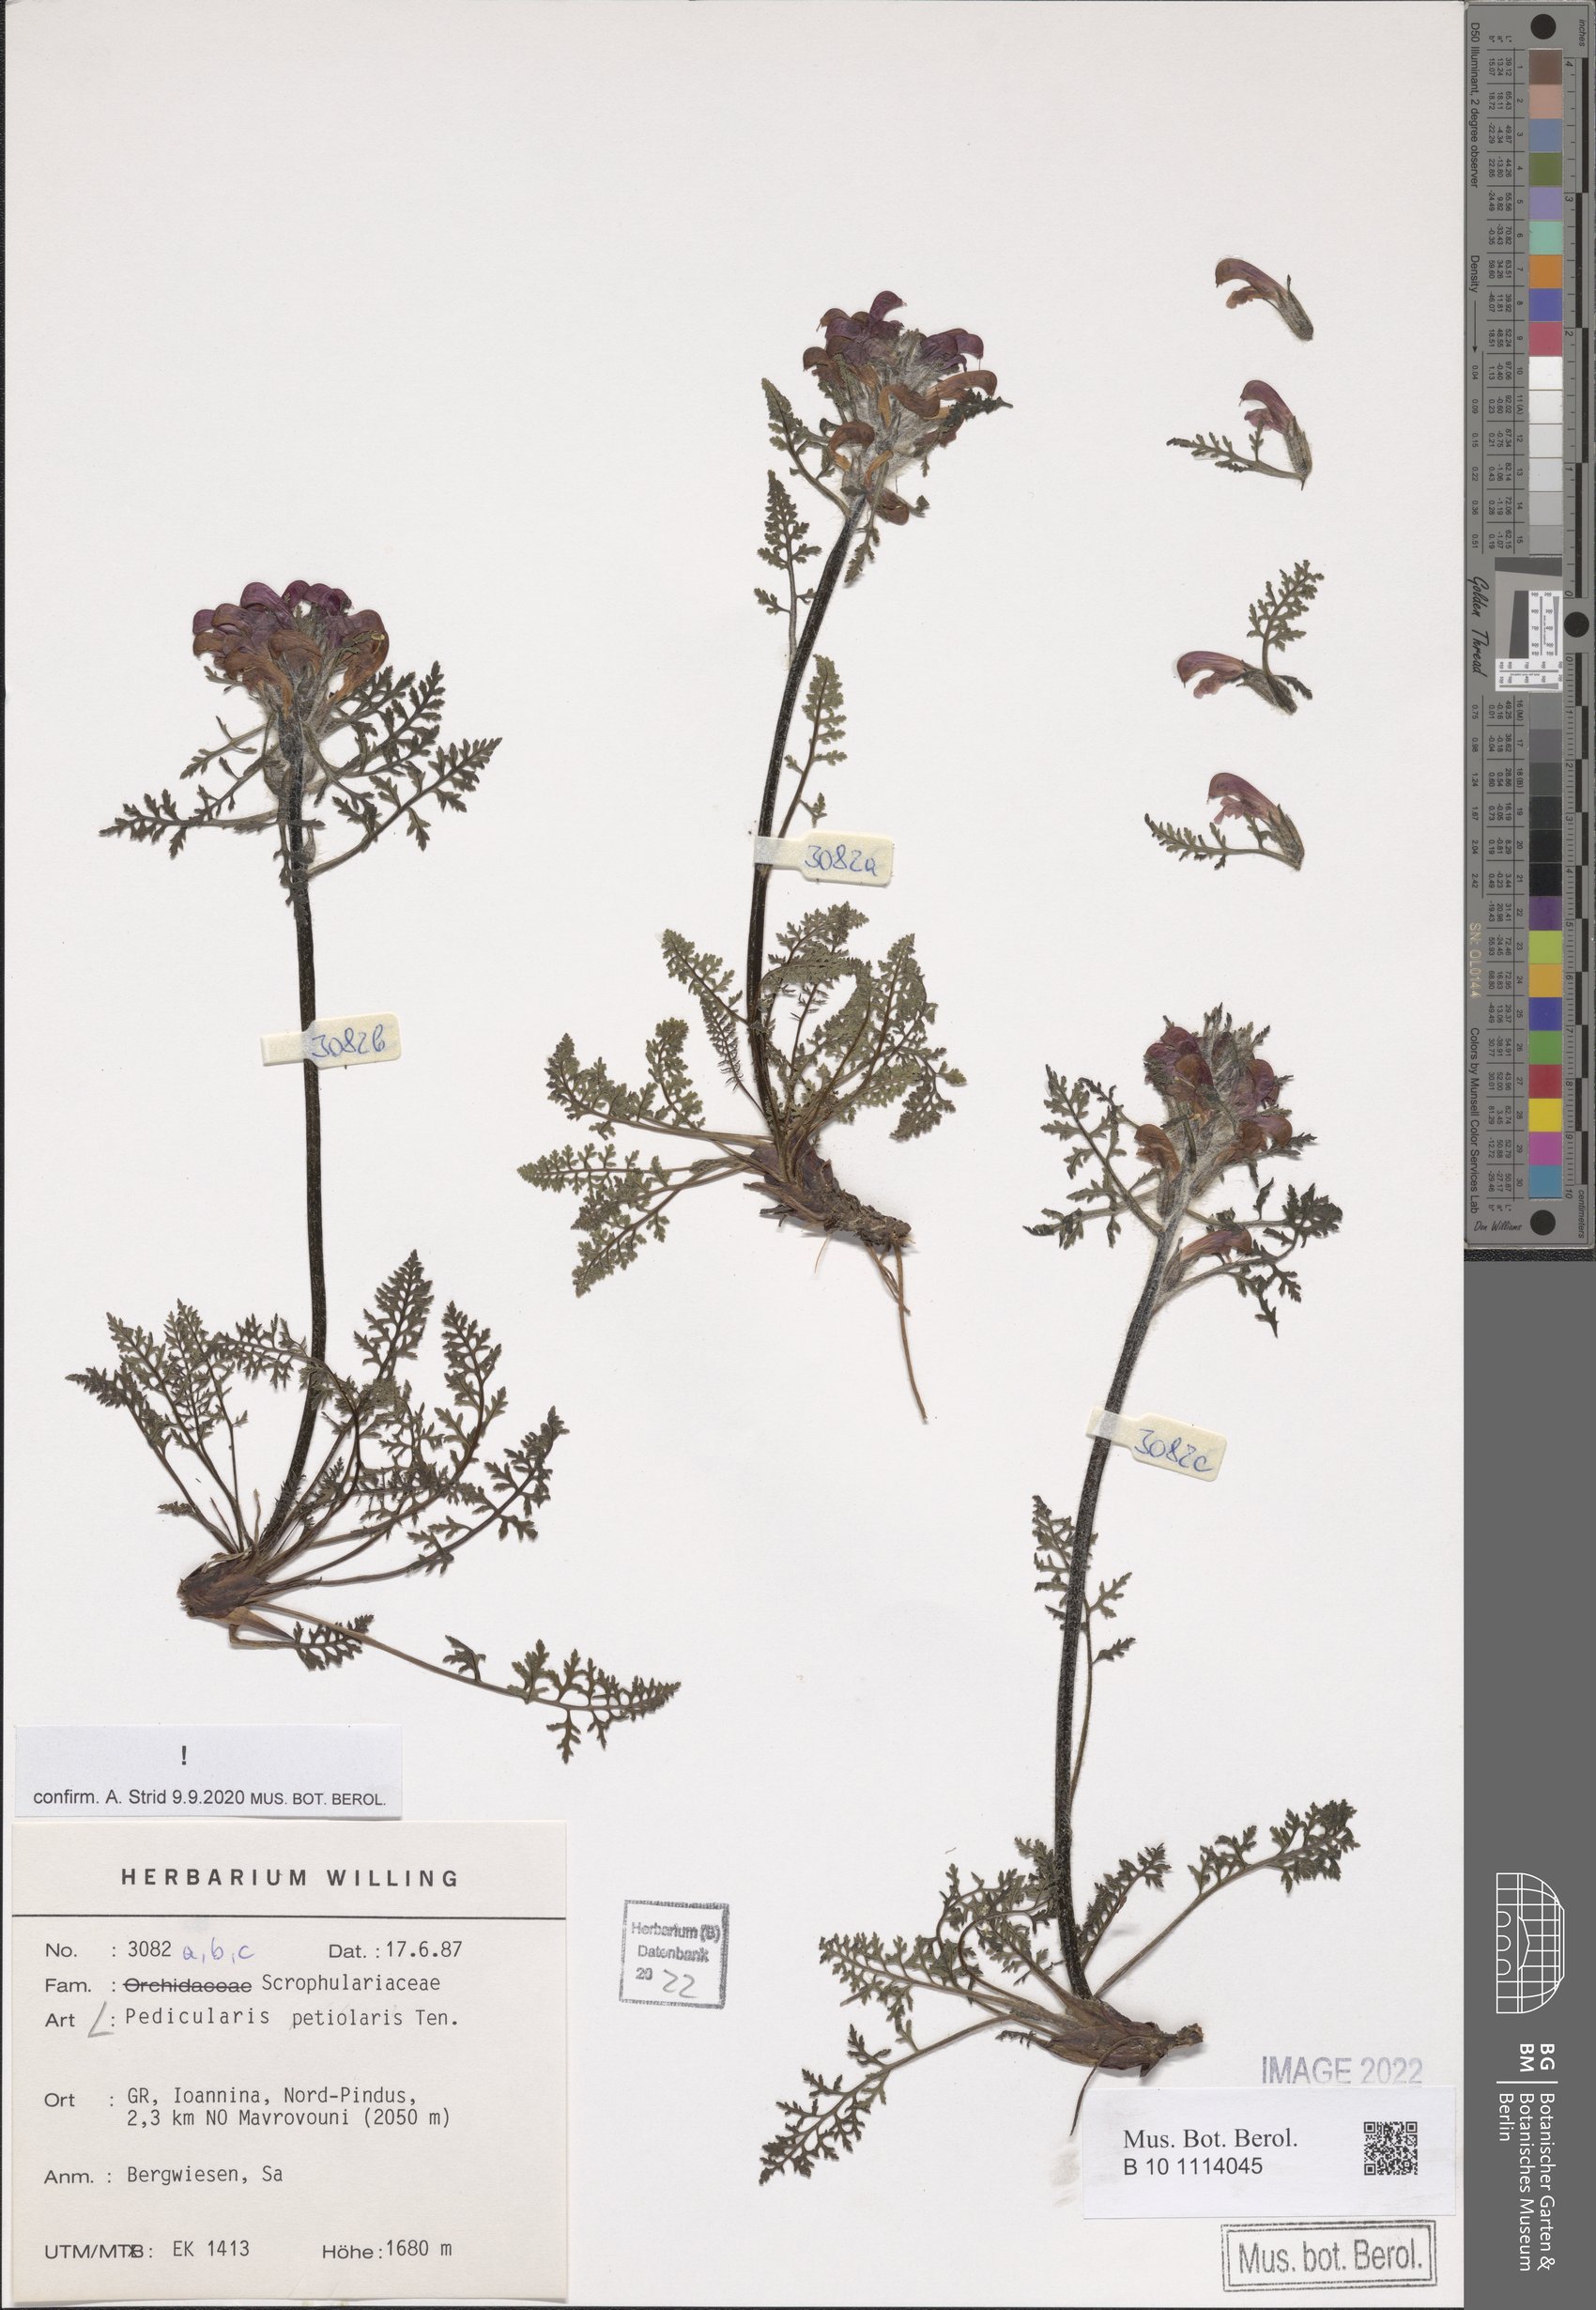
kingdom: Plantae
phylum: Tracheophyta
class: Magnoliopsida
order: Lamiales
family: Orobanchaceae
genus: Pedicularis
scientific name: Pedicularis petiolaris
